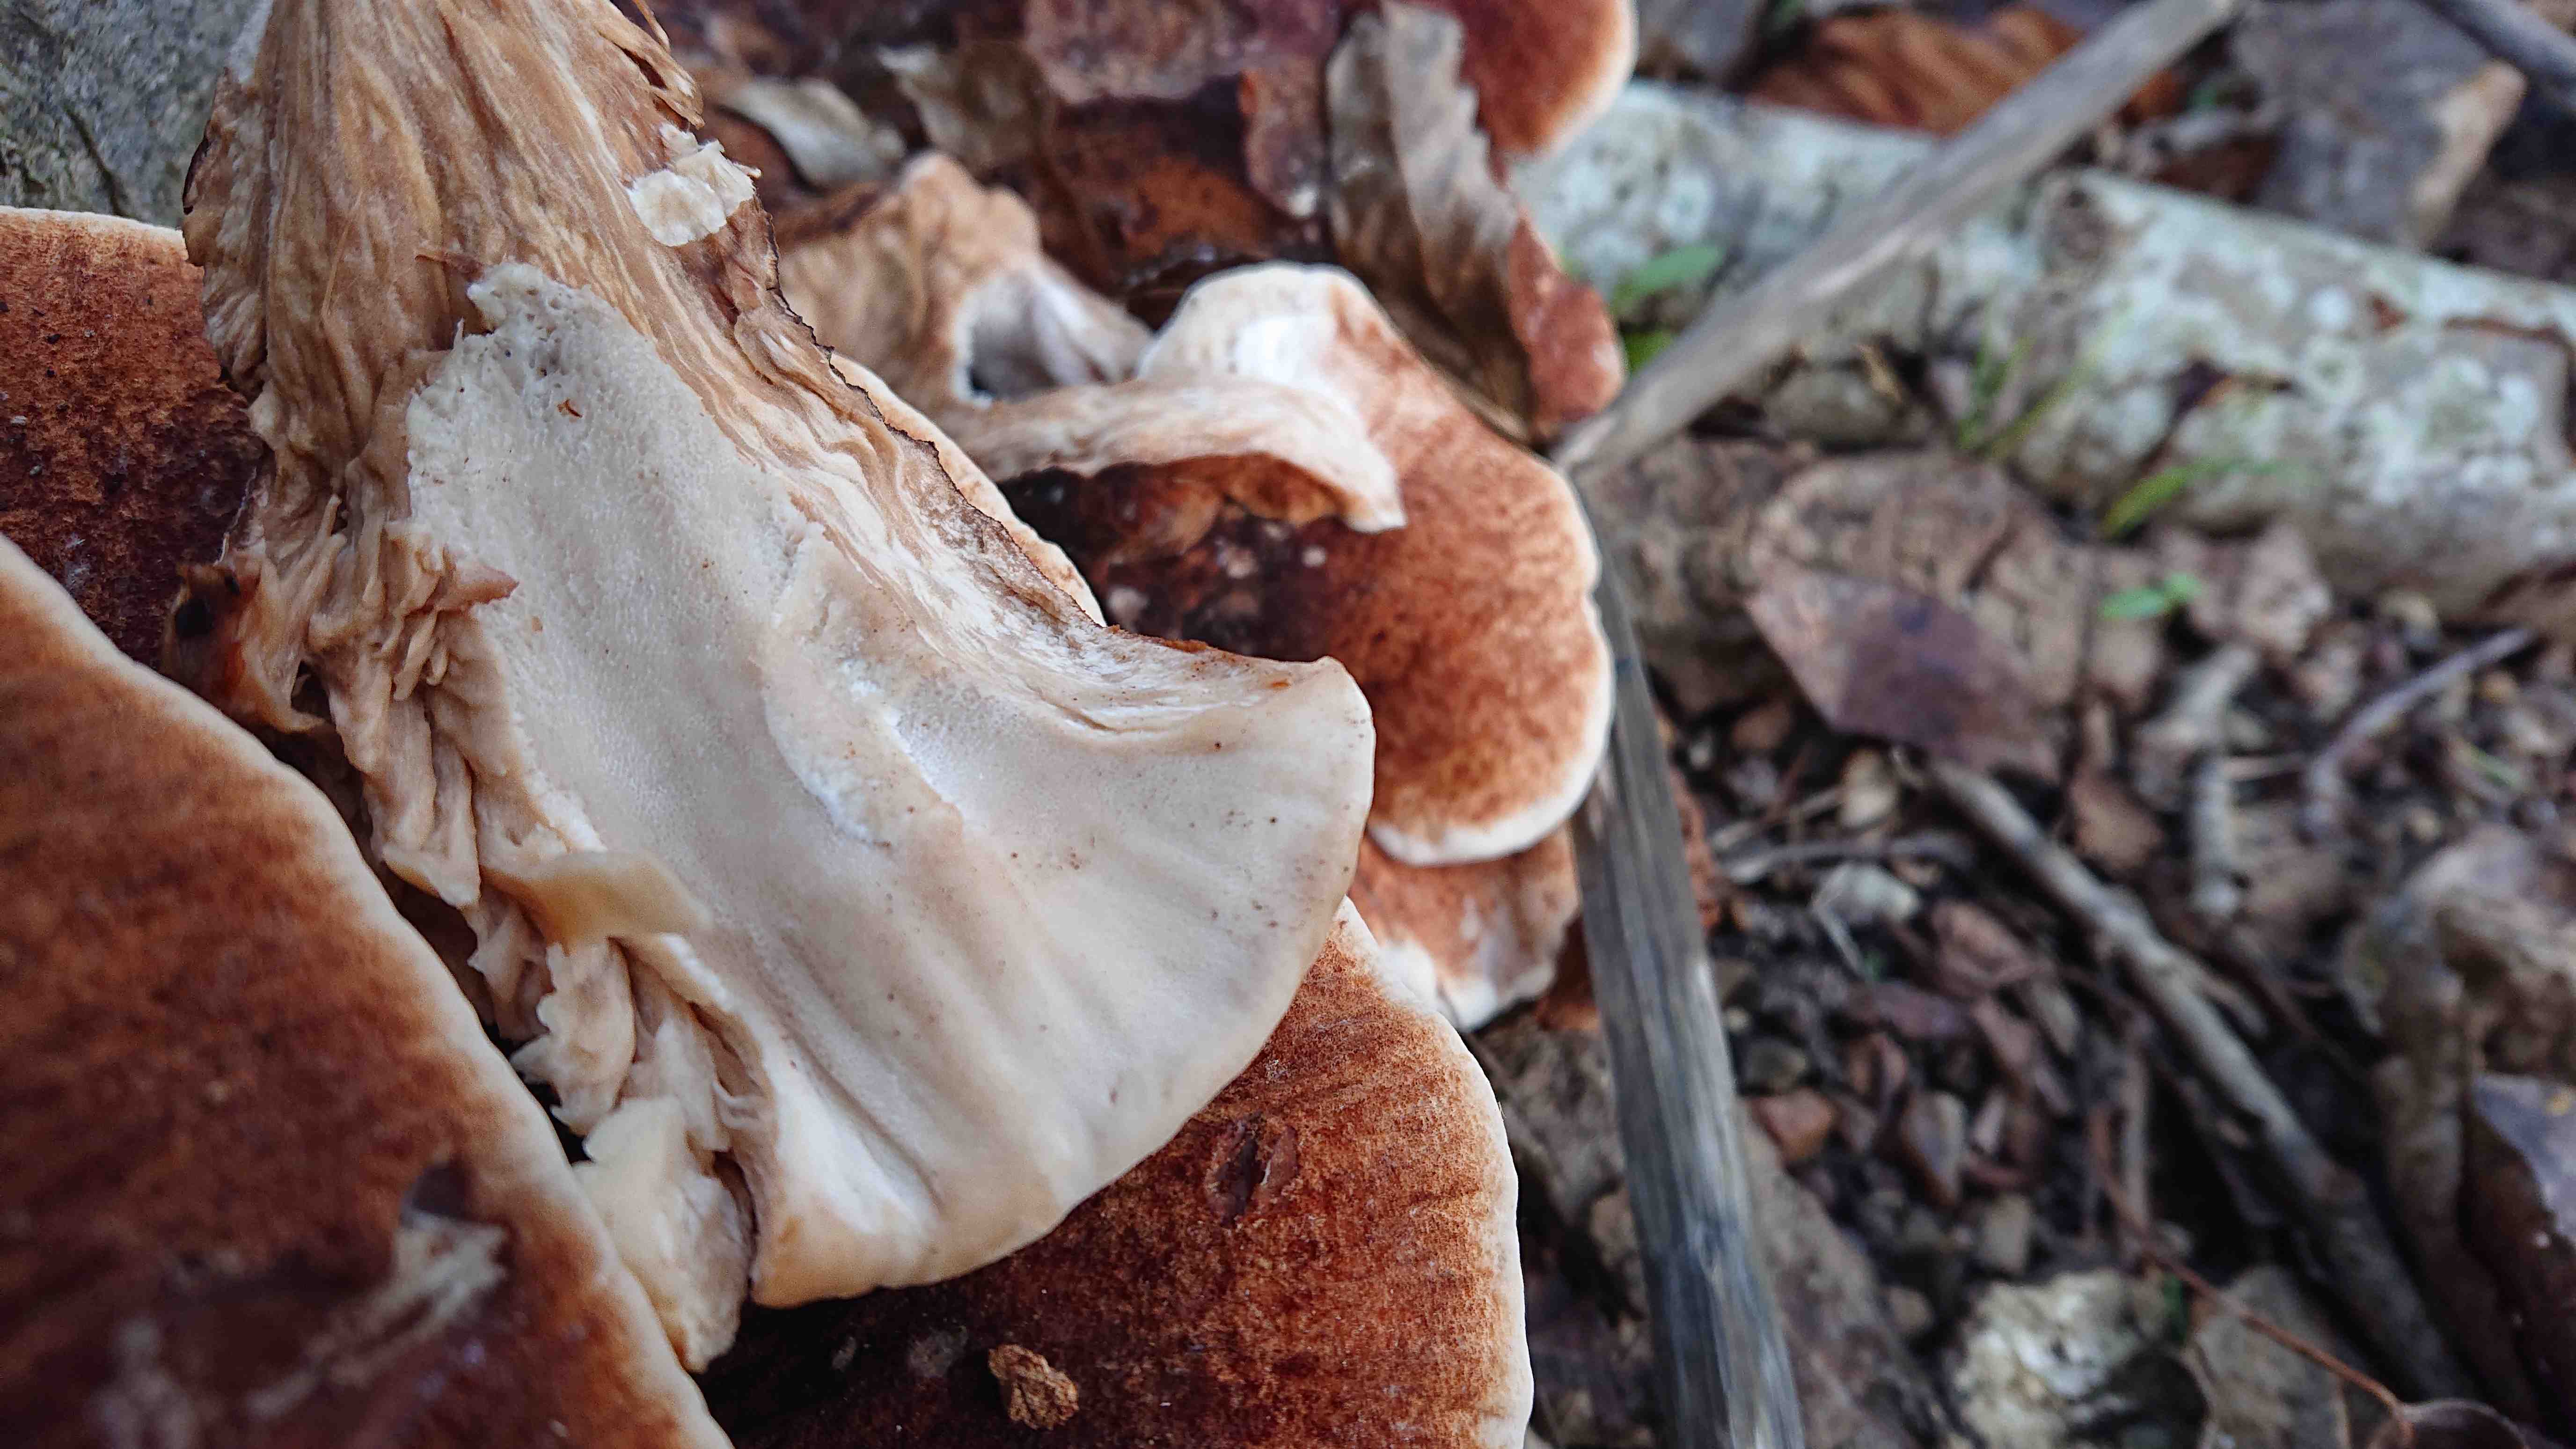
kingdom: Fungi
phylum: Basidiomycota
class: Agaricomycetes
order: Polyporales
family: Ischnodermataceae
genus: Ischnoderma
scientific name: Ischnoderma resinosum
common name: løv-tjæreporesvamp
